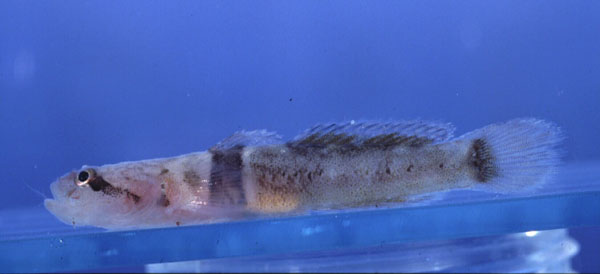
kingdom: Animalia
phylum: Chordata
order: Perciformes
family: Gobiidae
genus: Hetereleotris
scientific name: Hetereleotris zonata
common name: Goggles
